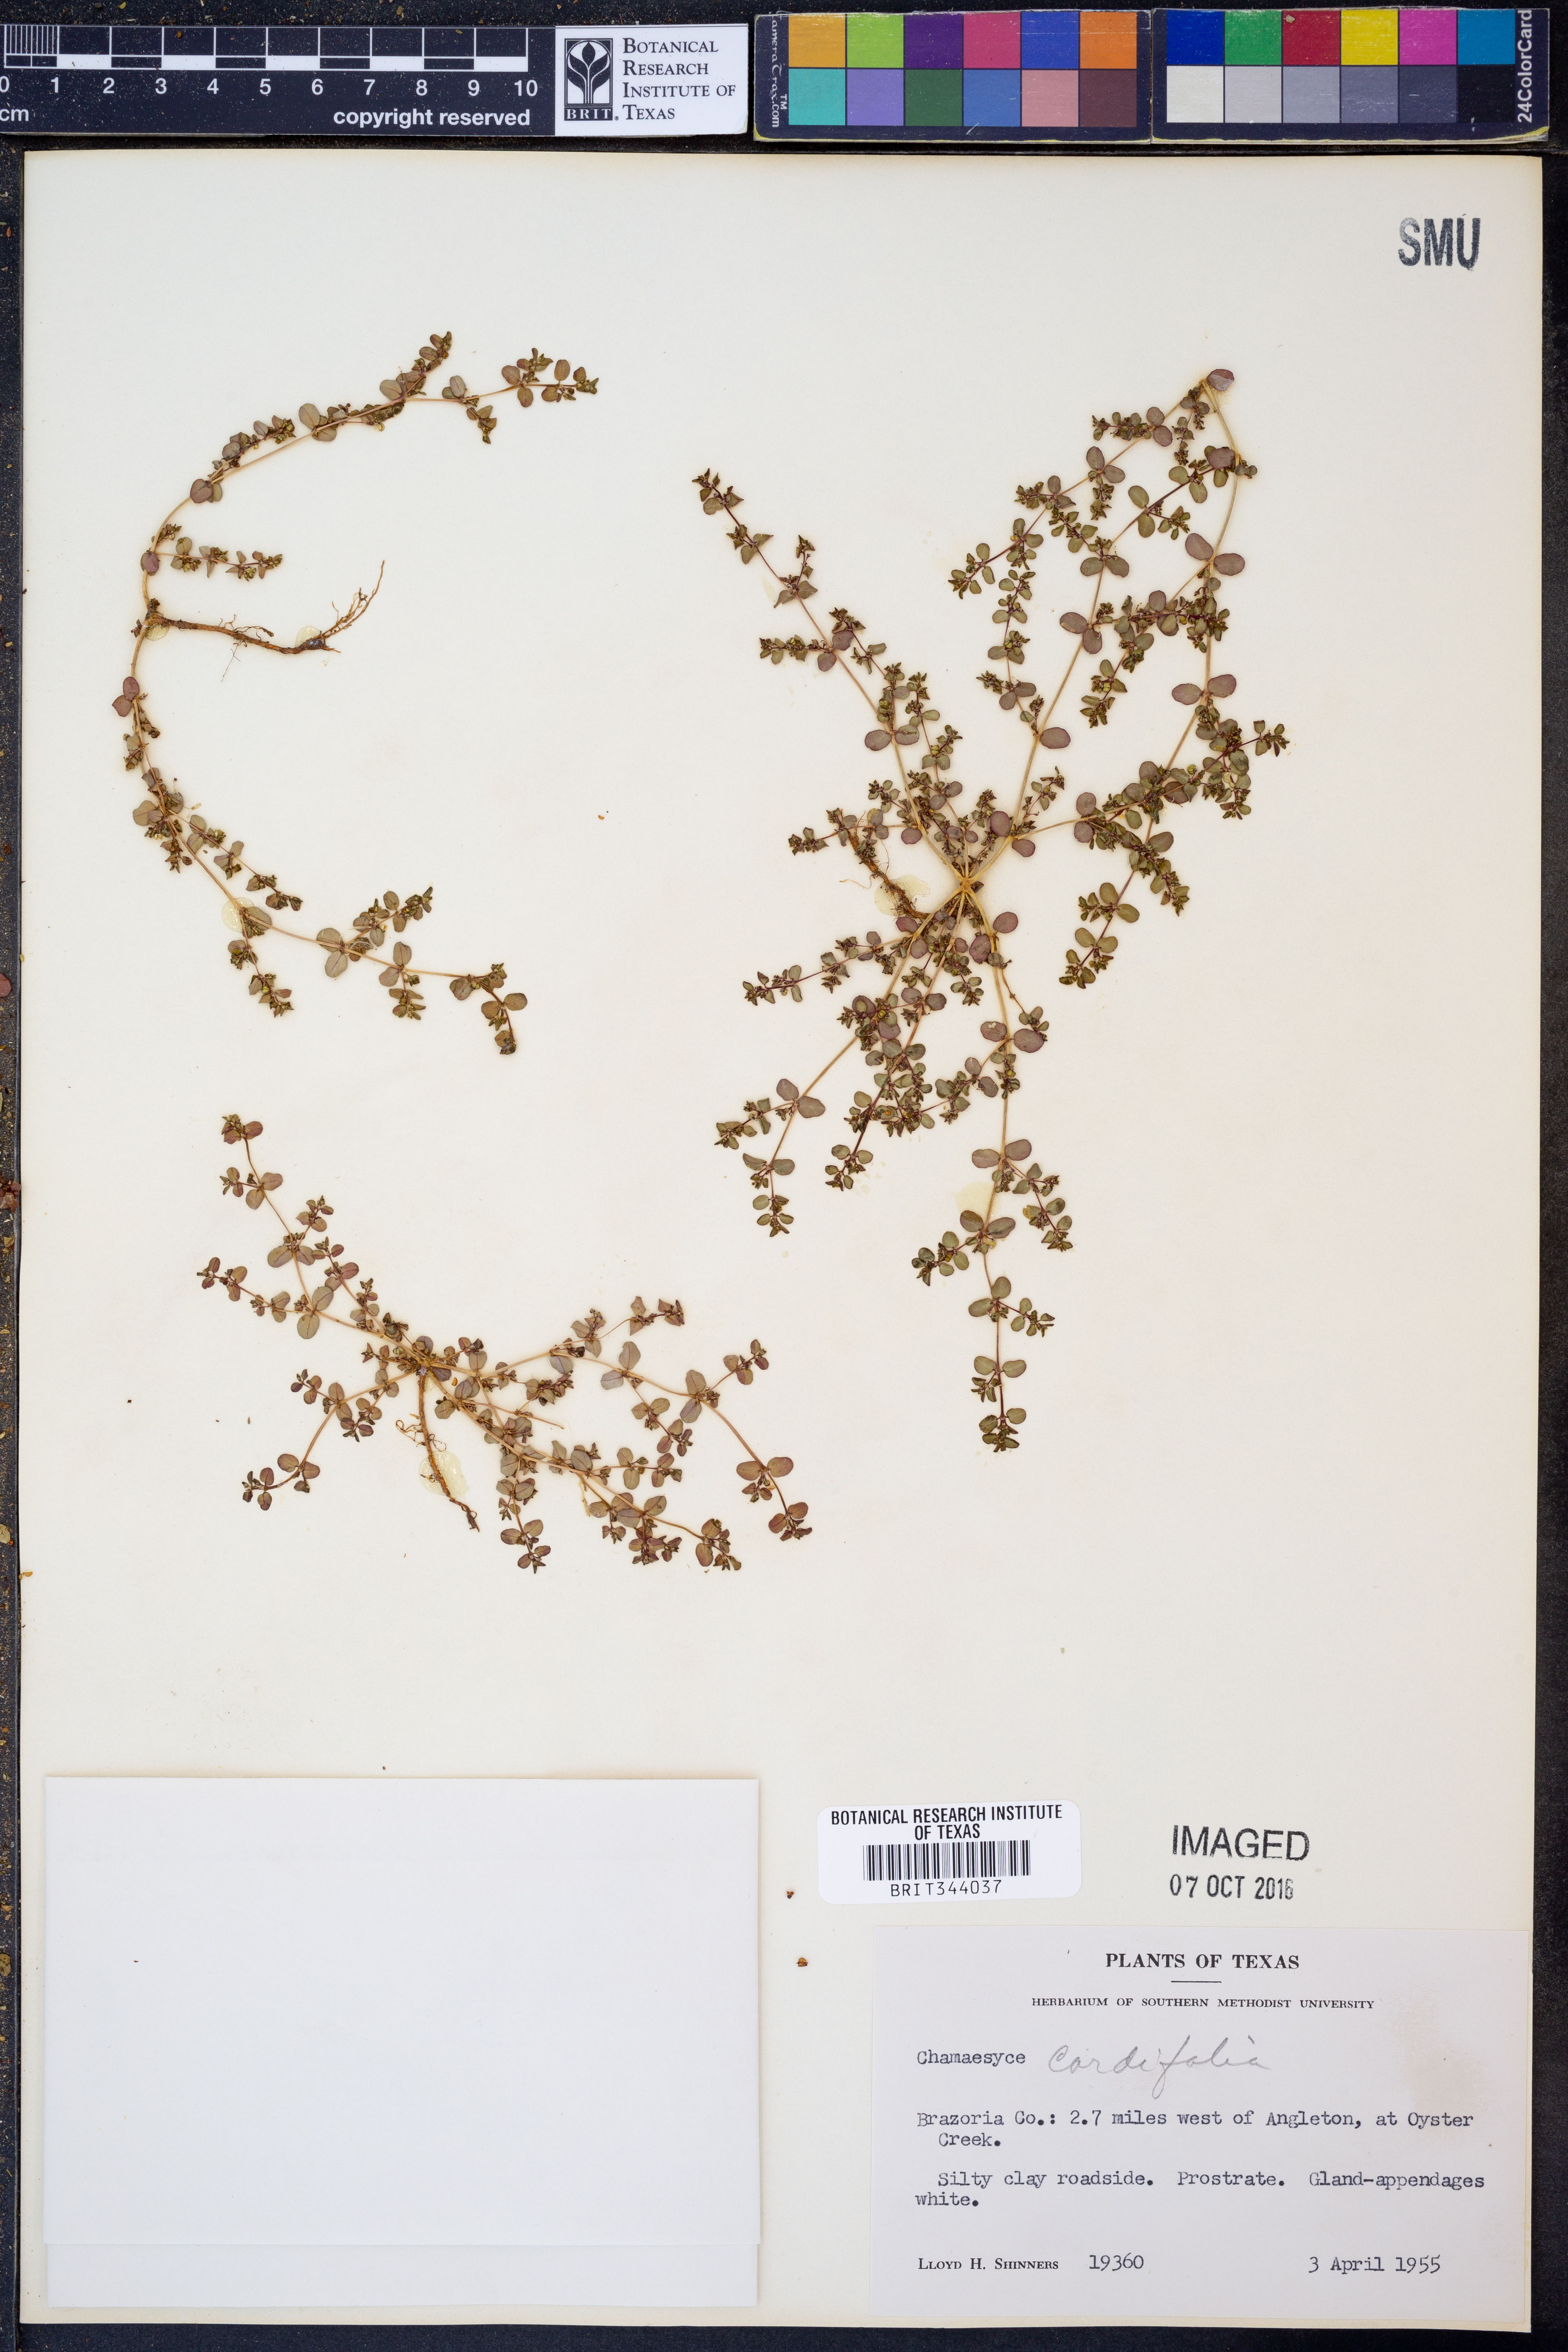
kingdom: Plantae
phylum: Tracheophyta
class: Magnoliopsida
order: Malpighiales
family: Euphorbiaceae
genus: Euphorbia
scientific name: Euphorbia cordifolia
